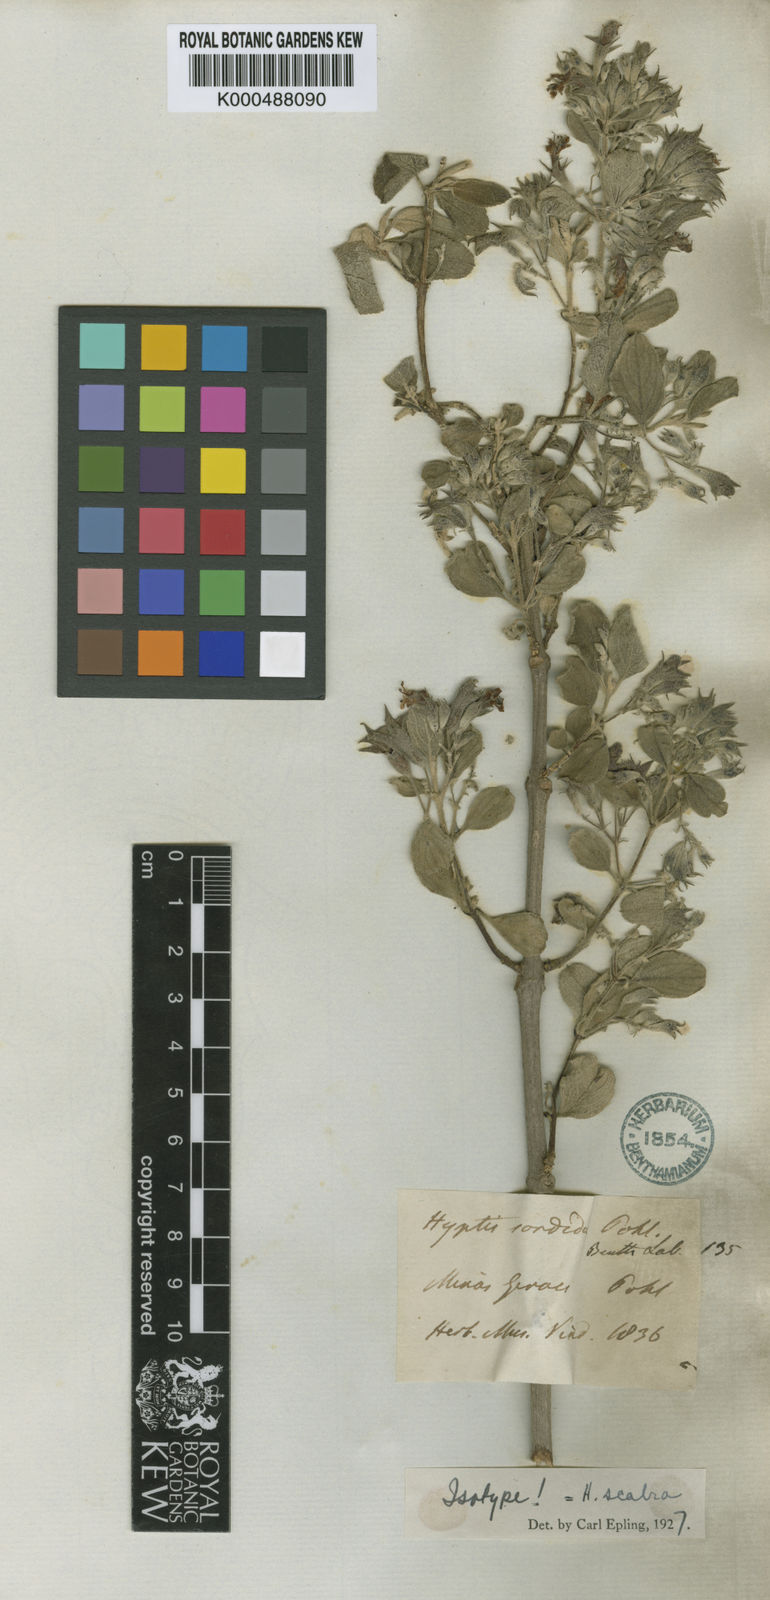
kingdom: Plantae
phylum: Tracheophyta
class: Magnoliopsida
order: Lamiales
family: Lamiaceae
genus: Hyptidendron
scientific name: Hyptidendron canum
